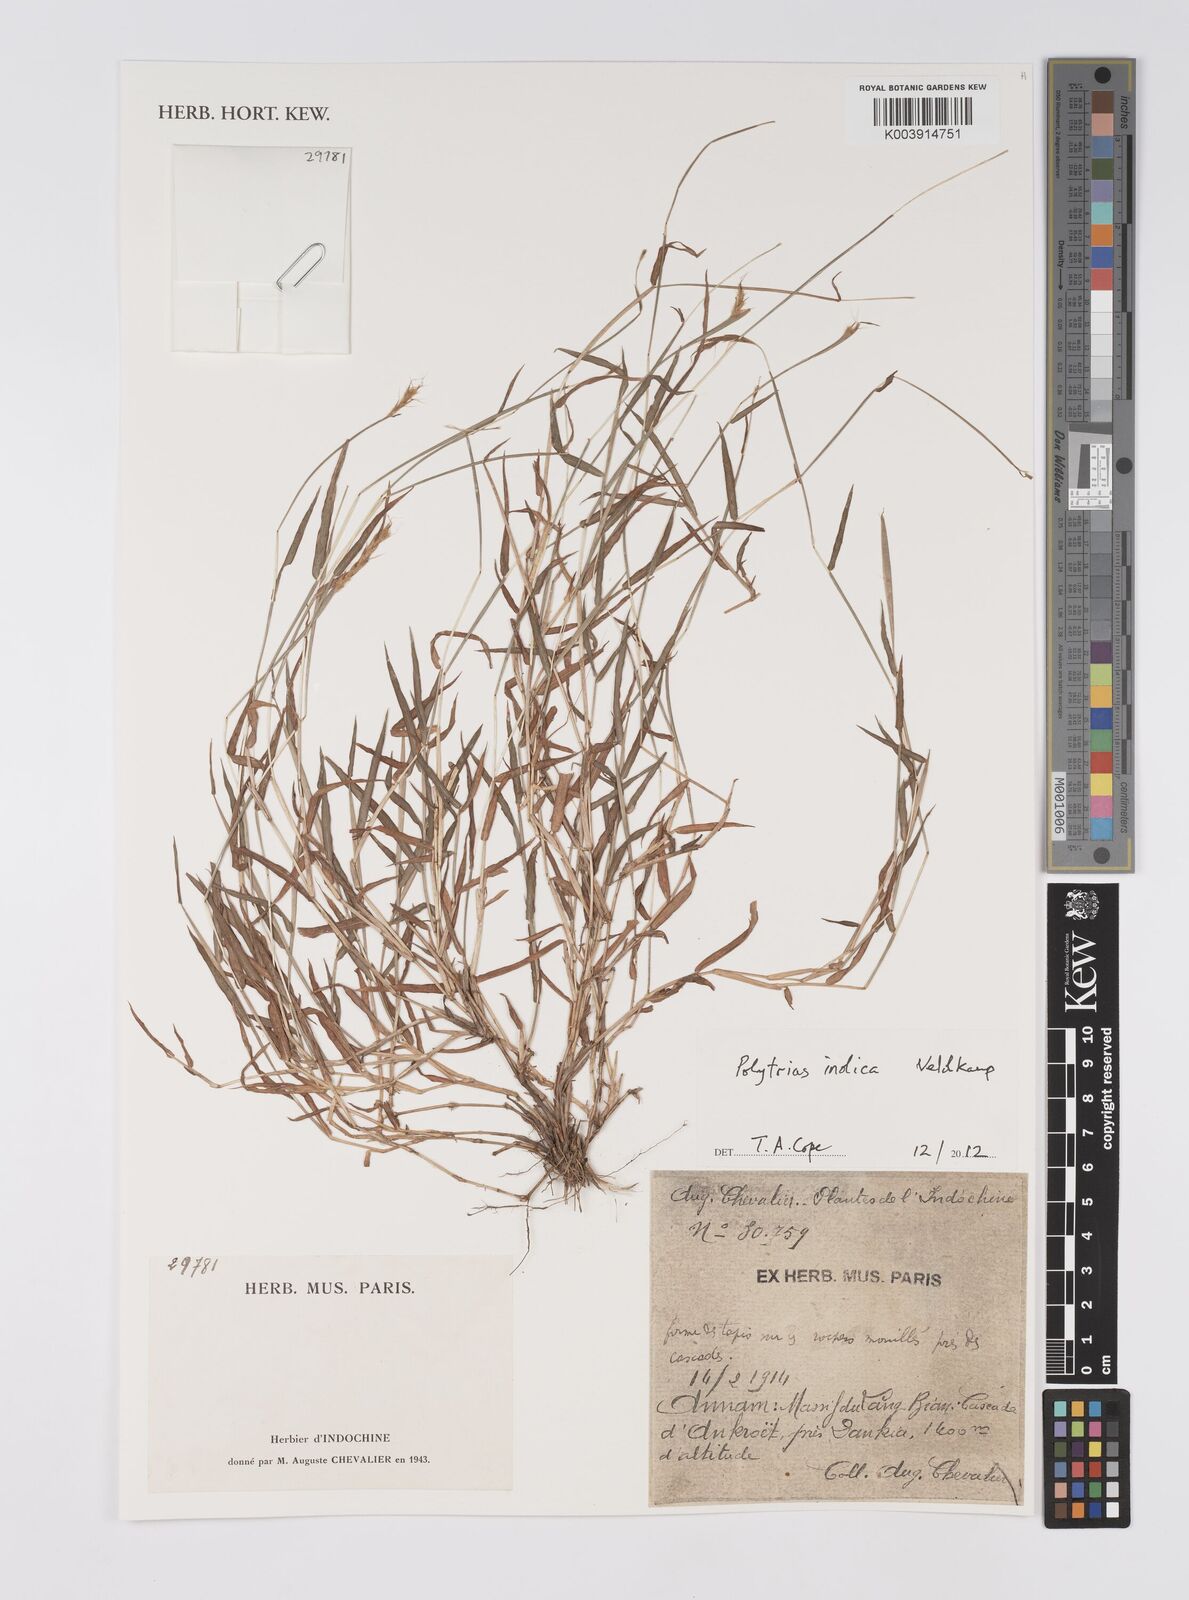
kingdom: Plantae
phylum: Tracheophyta
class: Liliopsida
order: Poales
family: Poaceae
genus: Polytrias
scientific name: Polytrias indica
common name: Indian murainagrass
